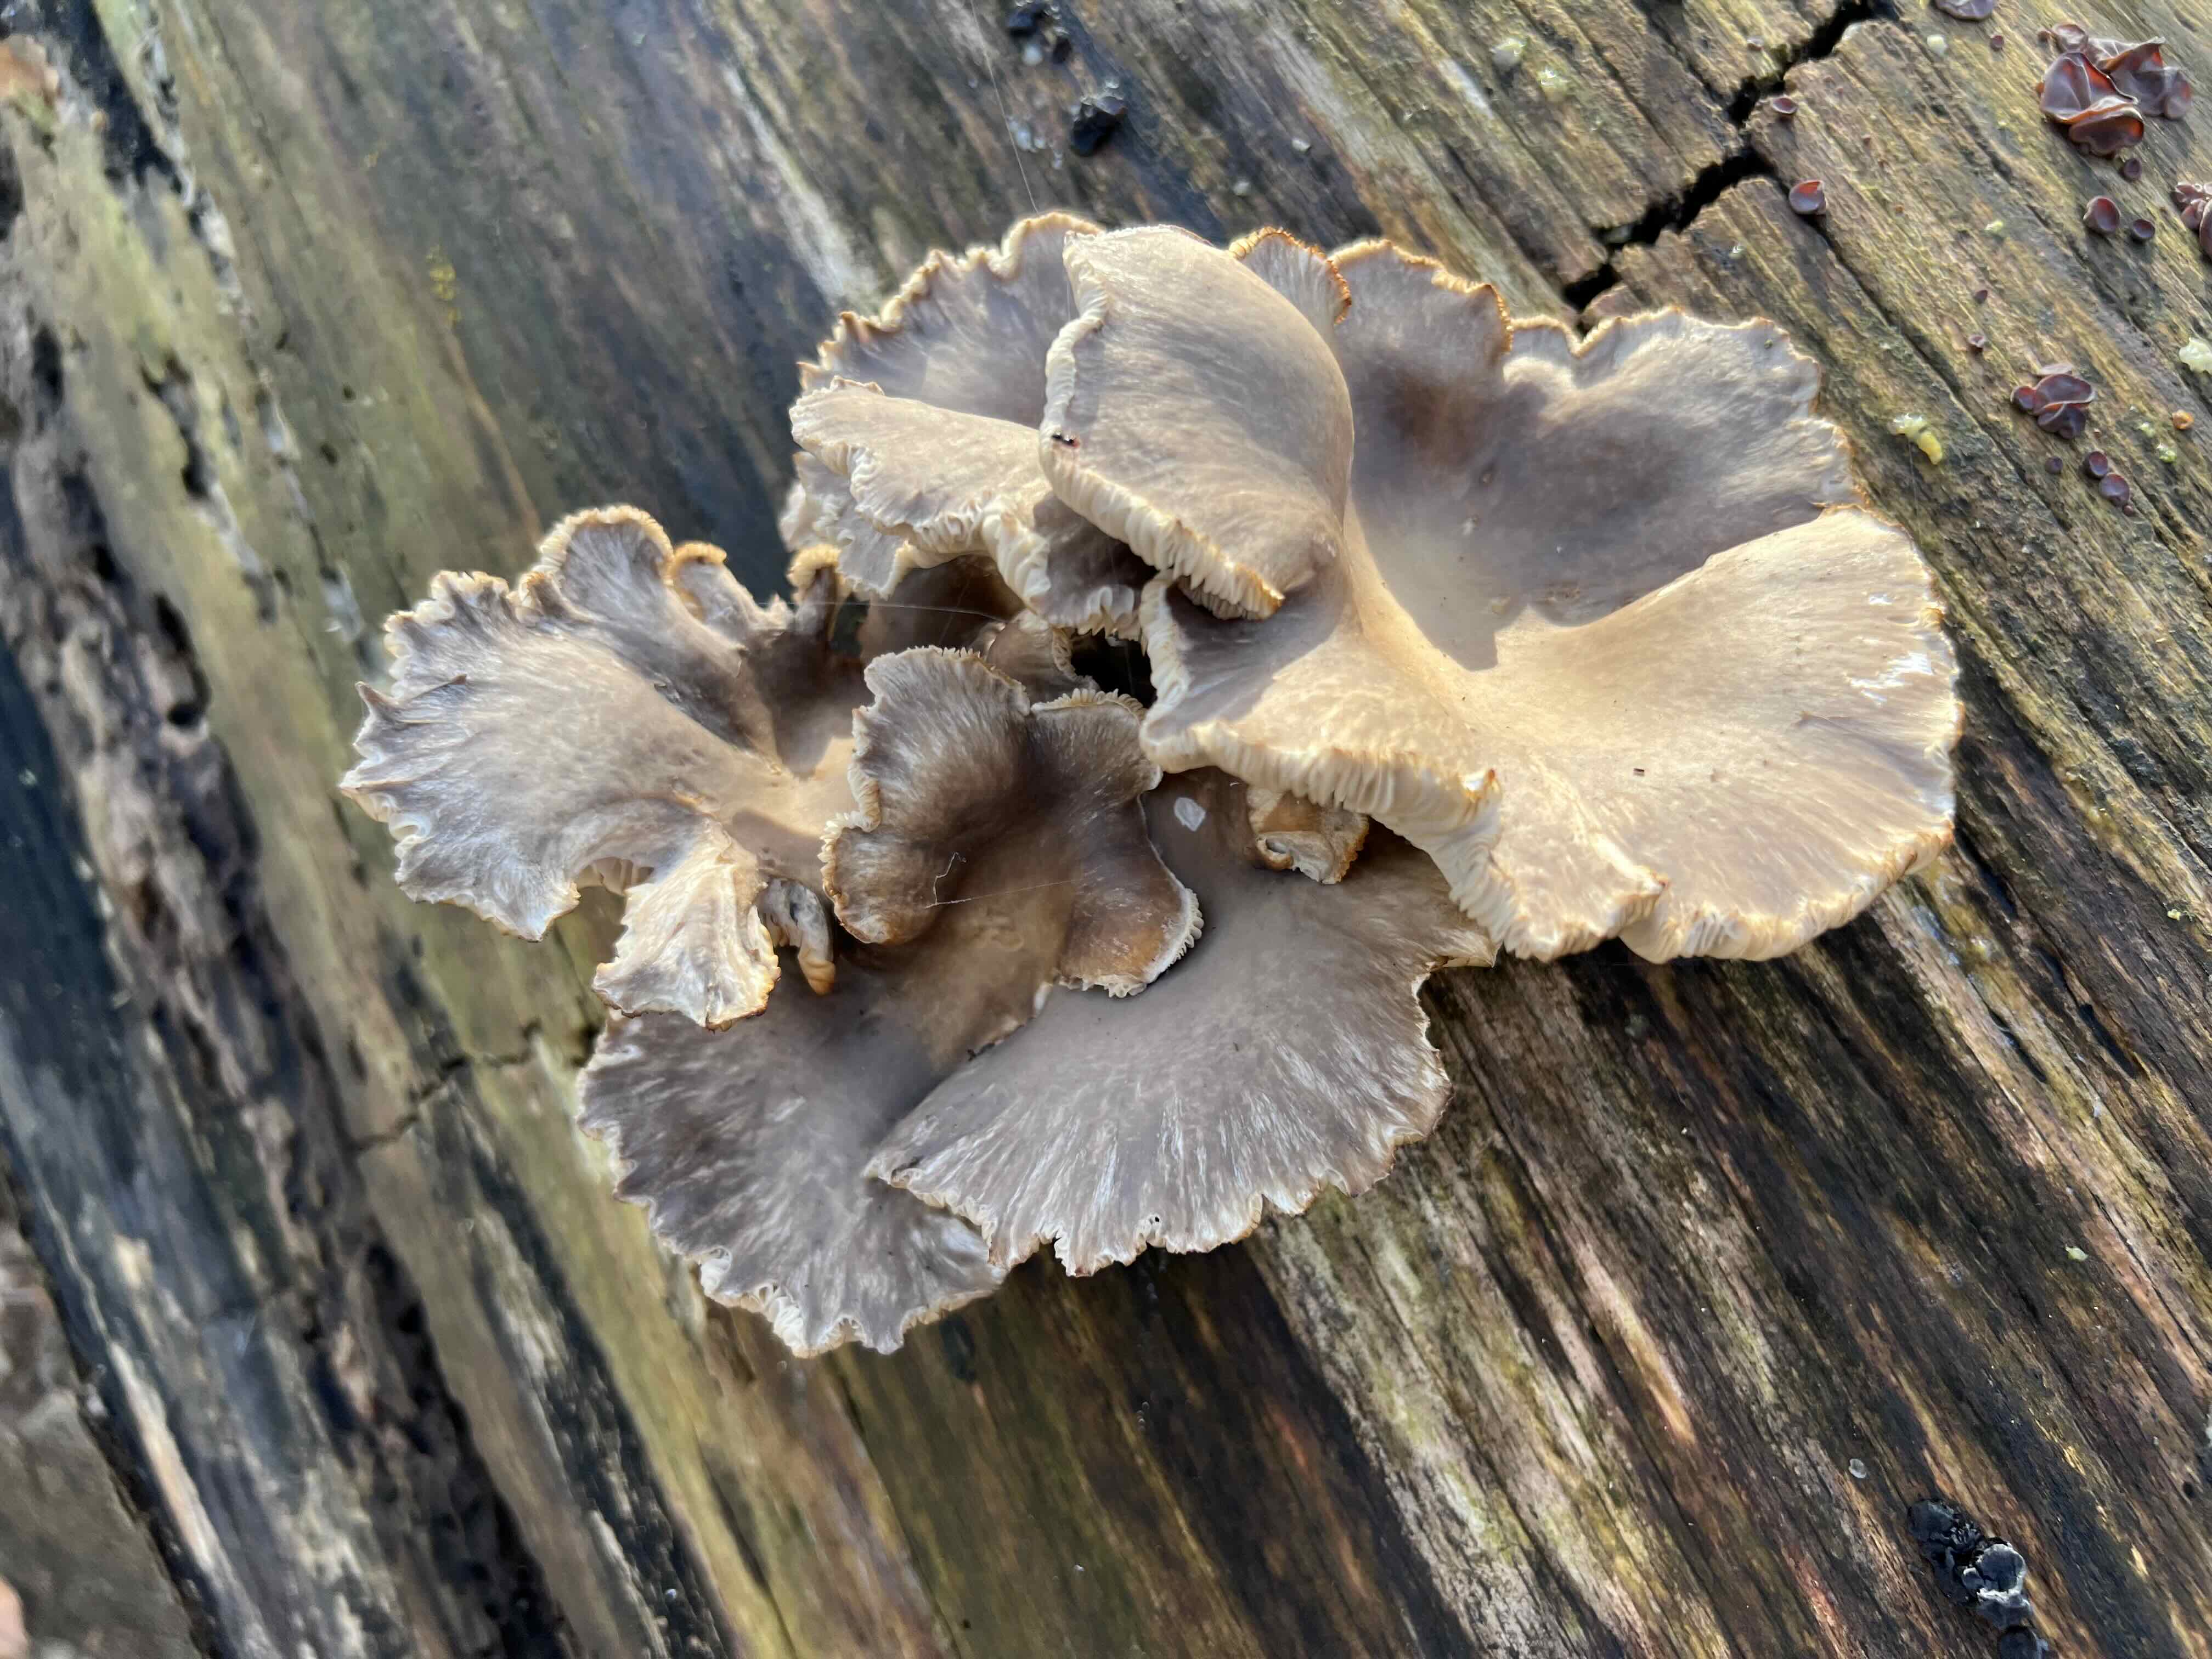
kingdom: Fungi
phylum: Basidiomycota
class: Agaricomycetes
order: Agaricales
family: Pleurotaceae
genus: Pleurotus
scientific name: Pleurotus ostreatus
